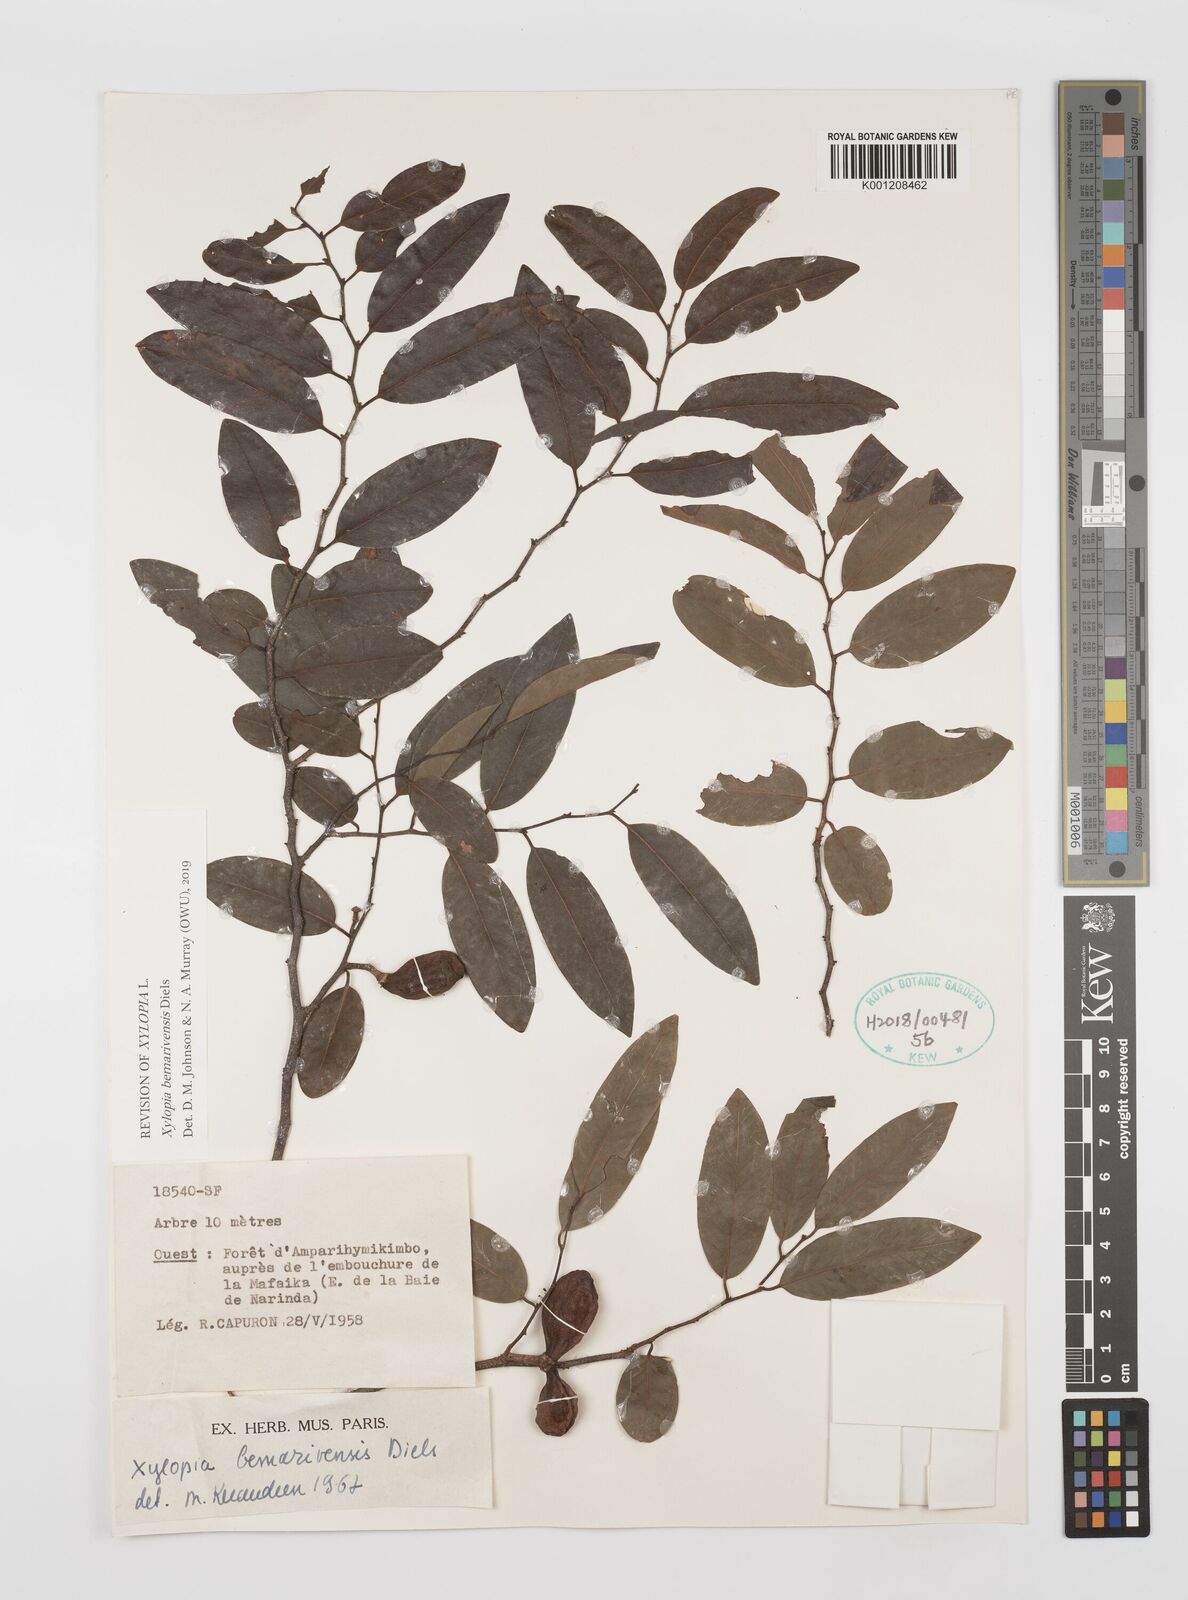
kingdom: Plantae
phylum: Tracheophyta
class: Magnoliopsida
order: Magnoliales
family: Annonaceae
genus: Xylopia
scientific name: Xylopia bemarivensis
